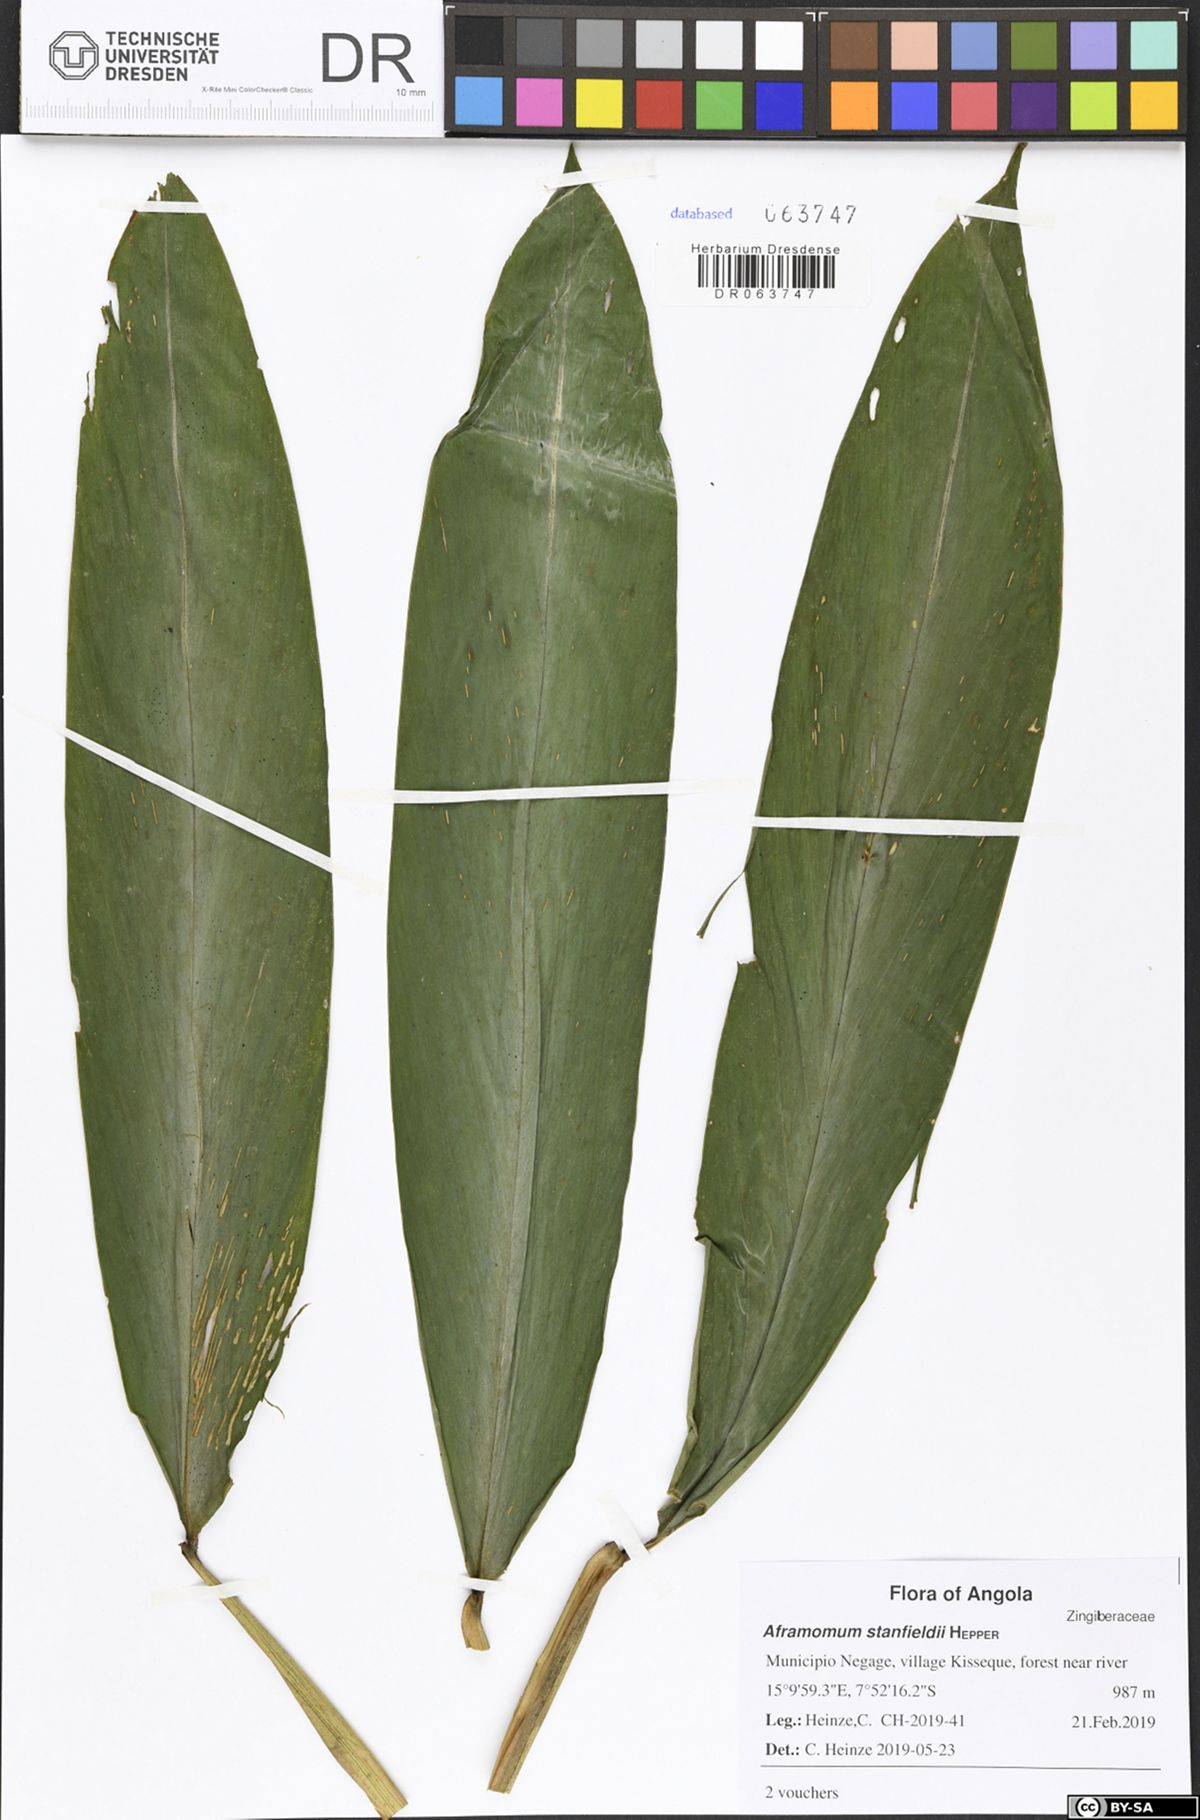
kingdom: Plantae
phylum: Tracheophyta
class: Liliopsida
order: Zingiberales
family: Zingiberaceae
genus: Aframomum
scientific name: Aframomum giganteum
